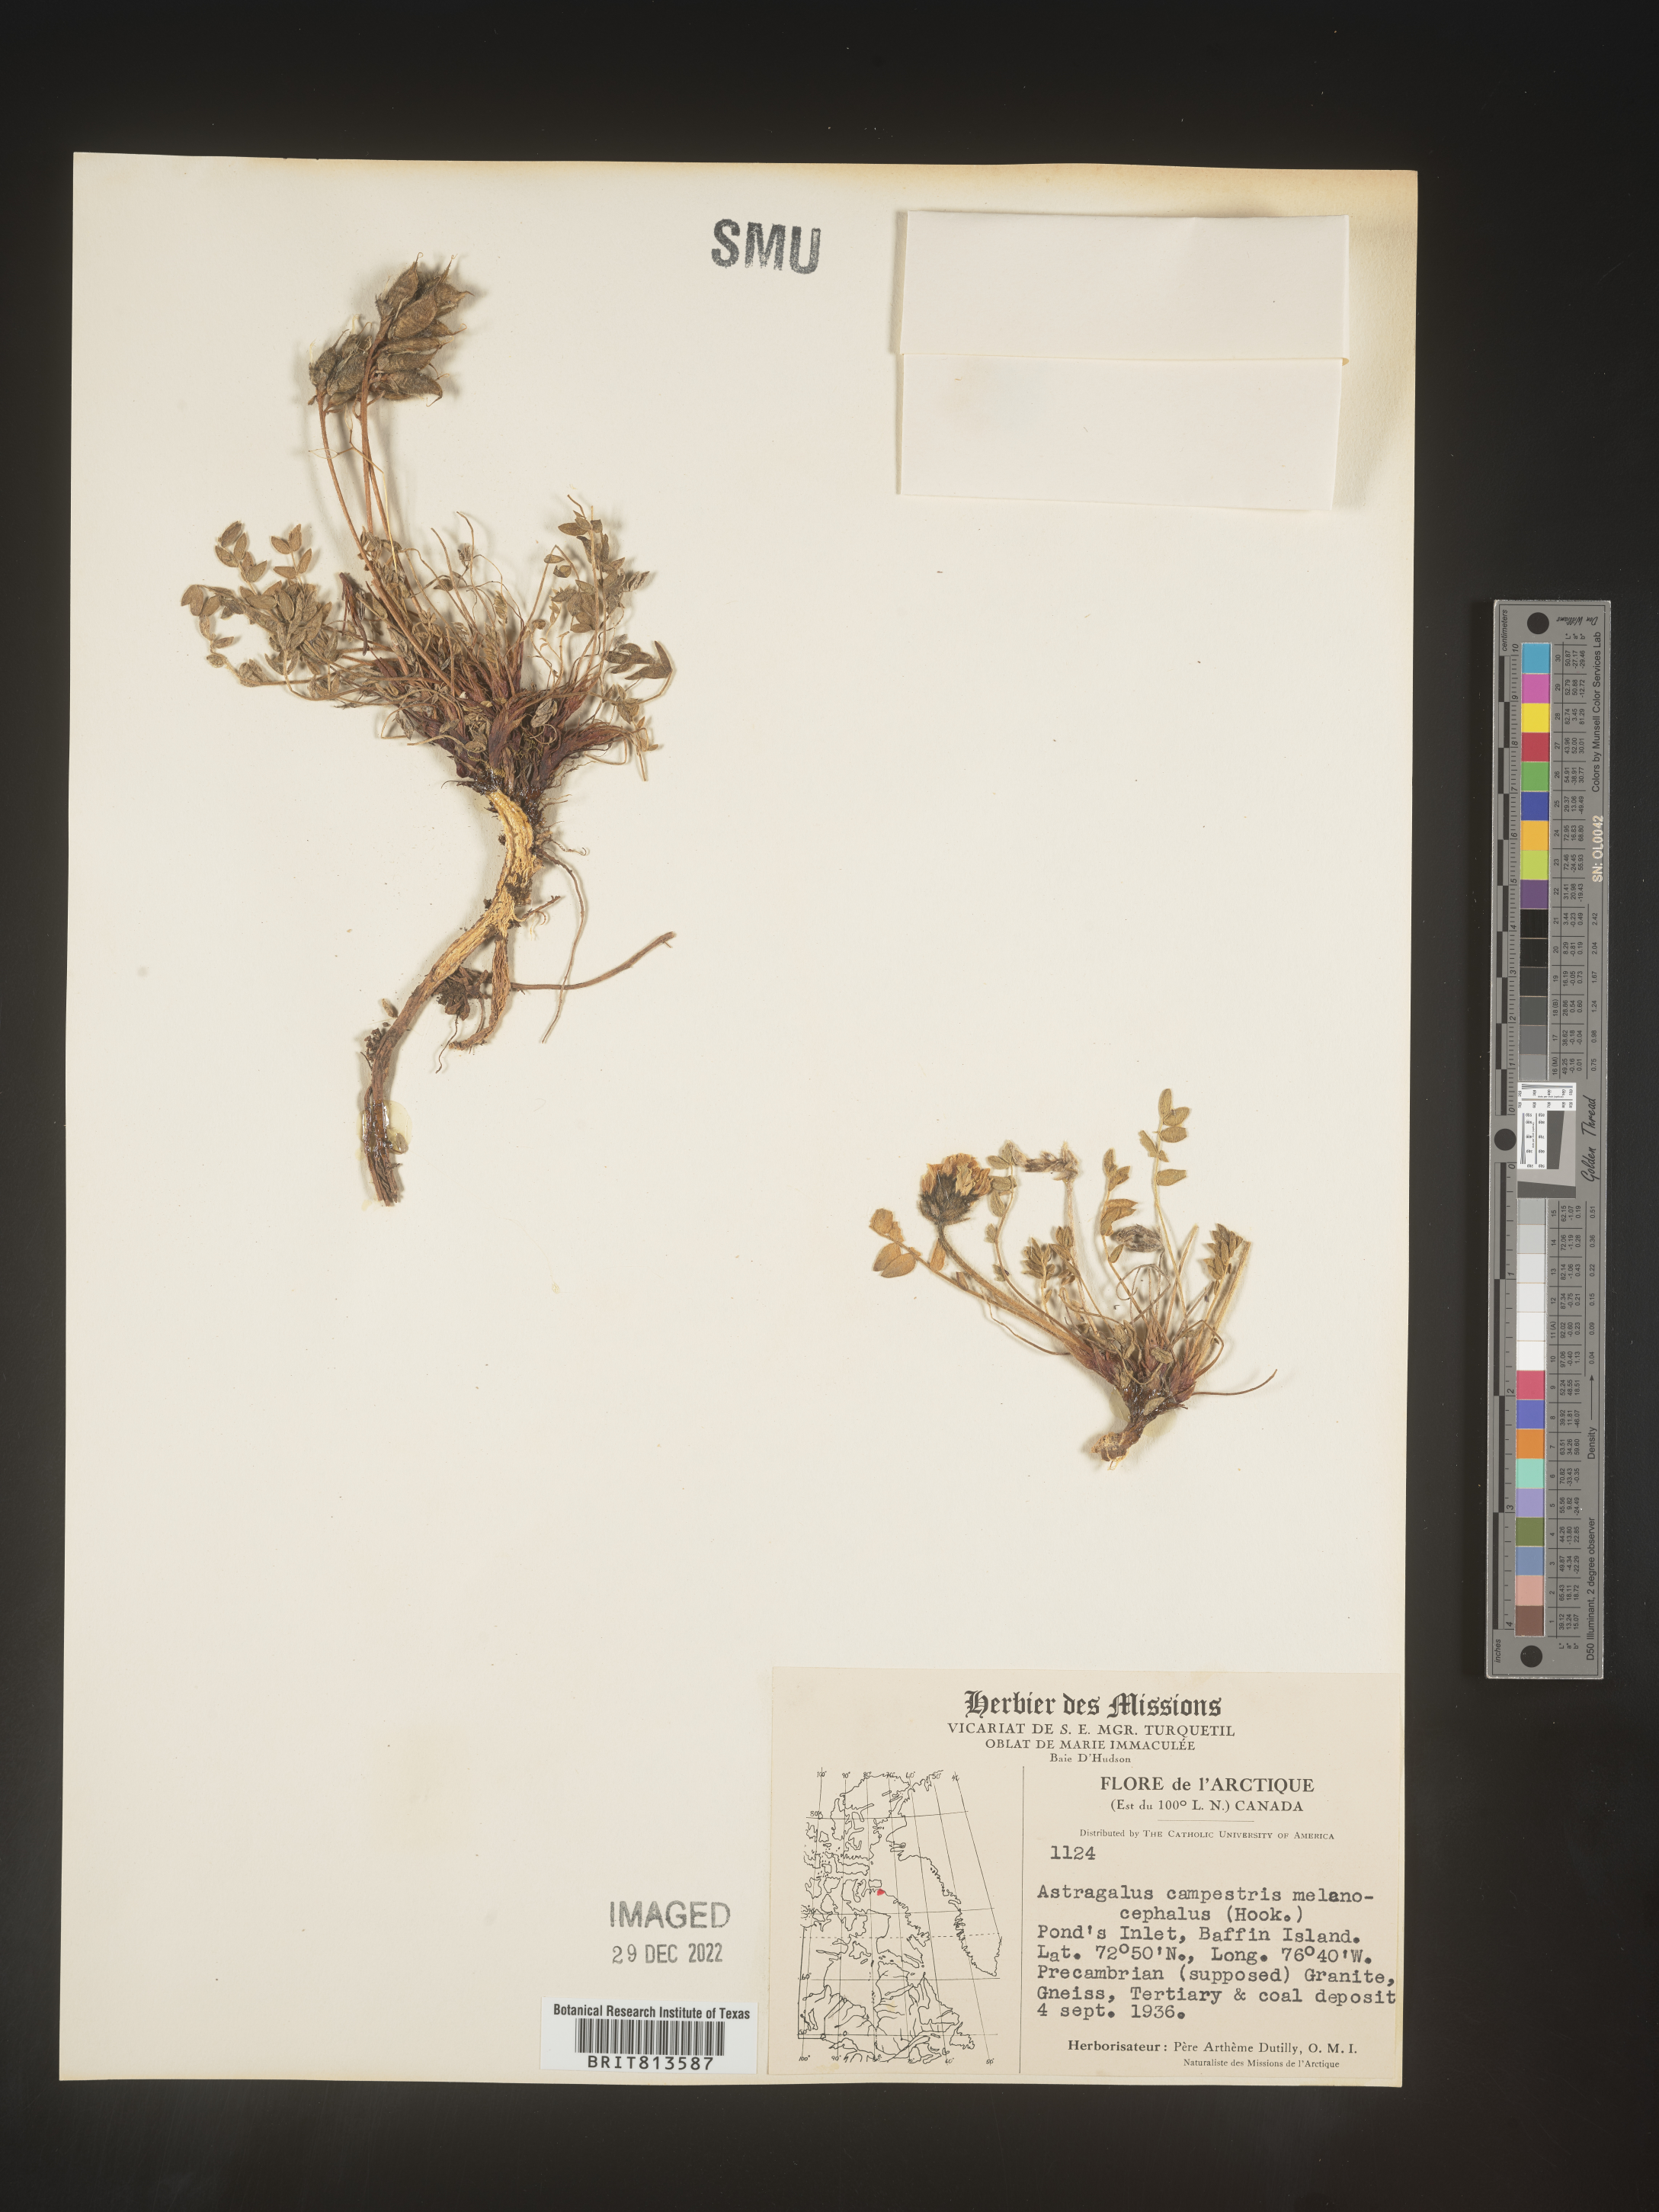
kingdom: Plantae
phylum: Tracheophyta
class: Magnoliopsida
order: Fabales
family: Fabaceae
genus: Astragalus
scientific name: Astragalus
